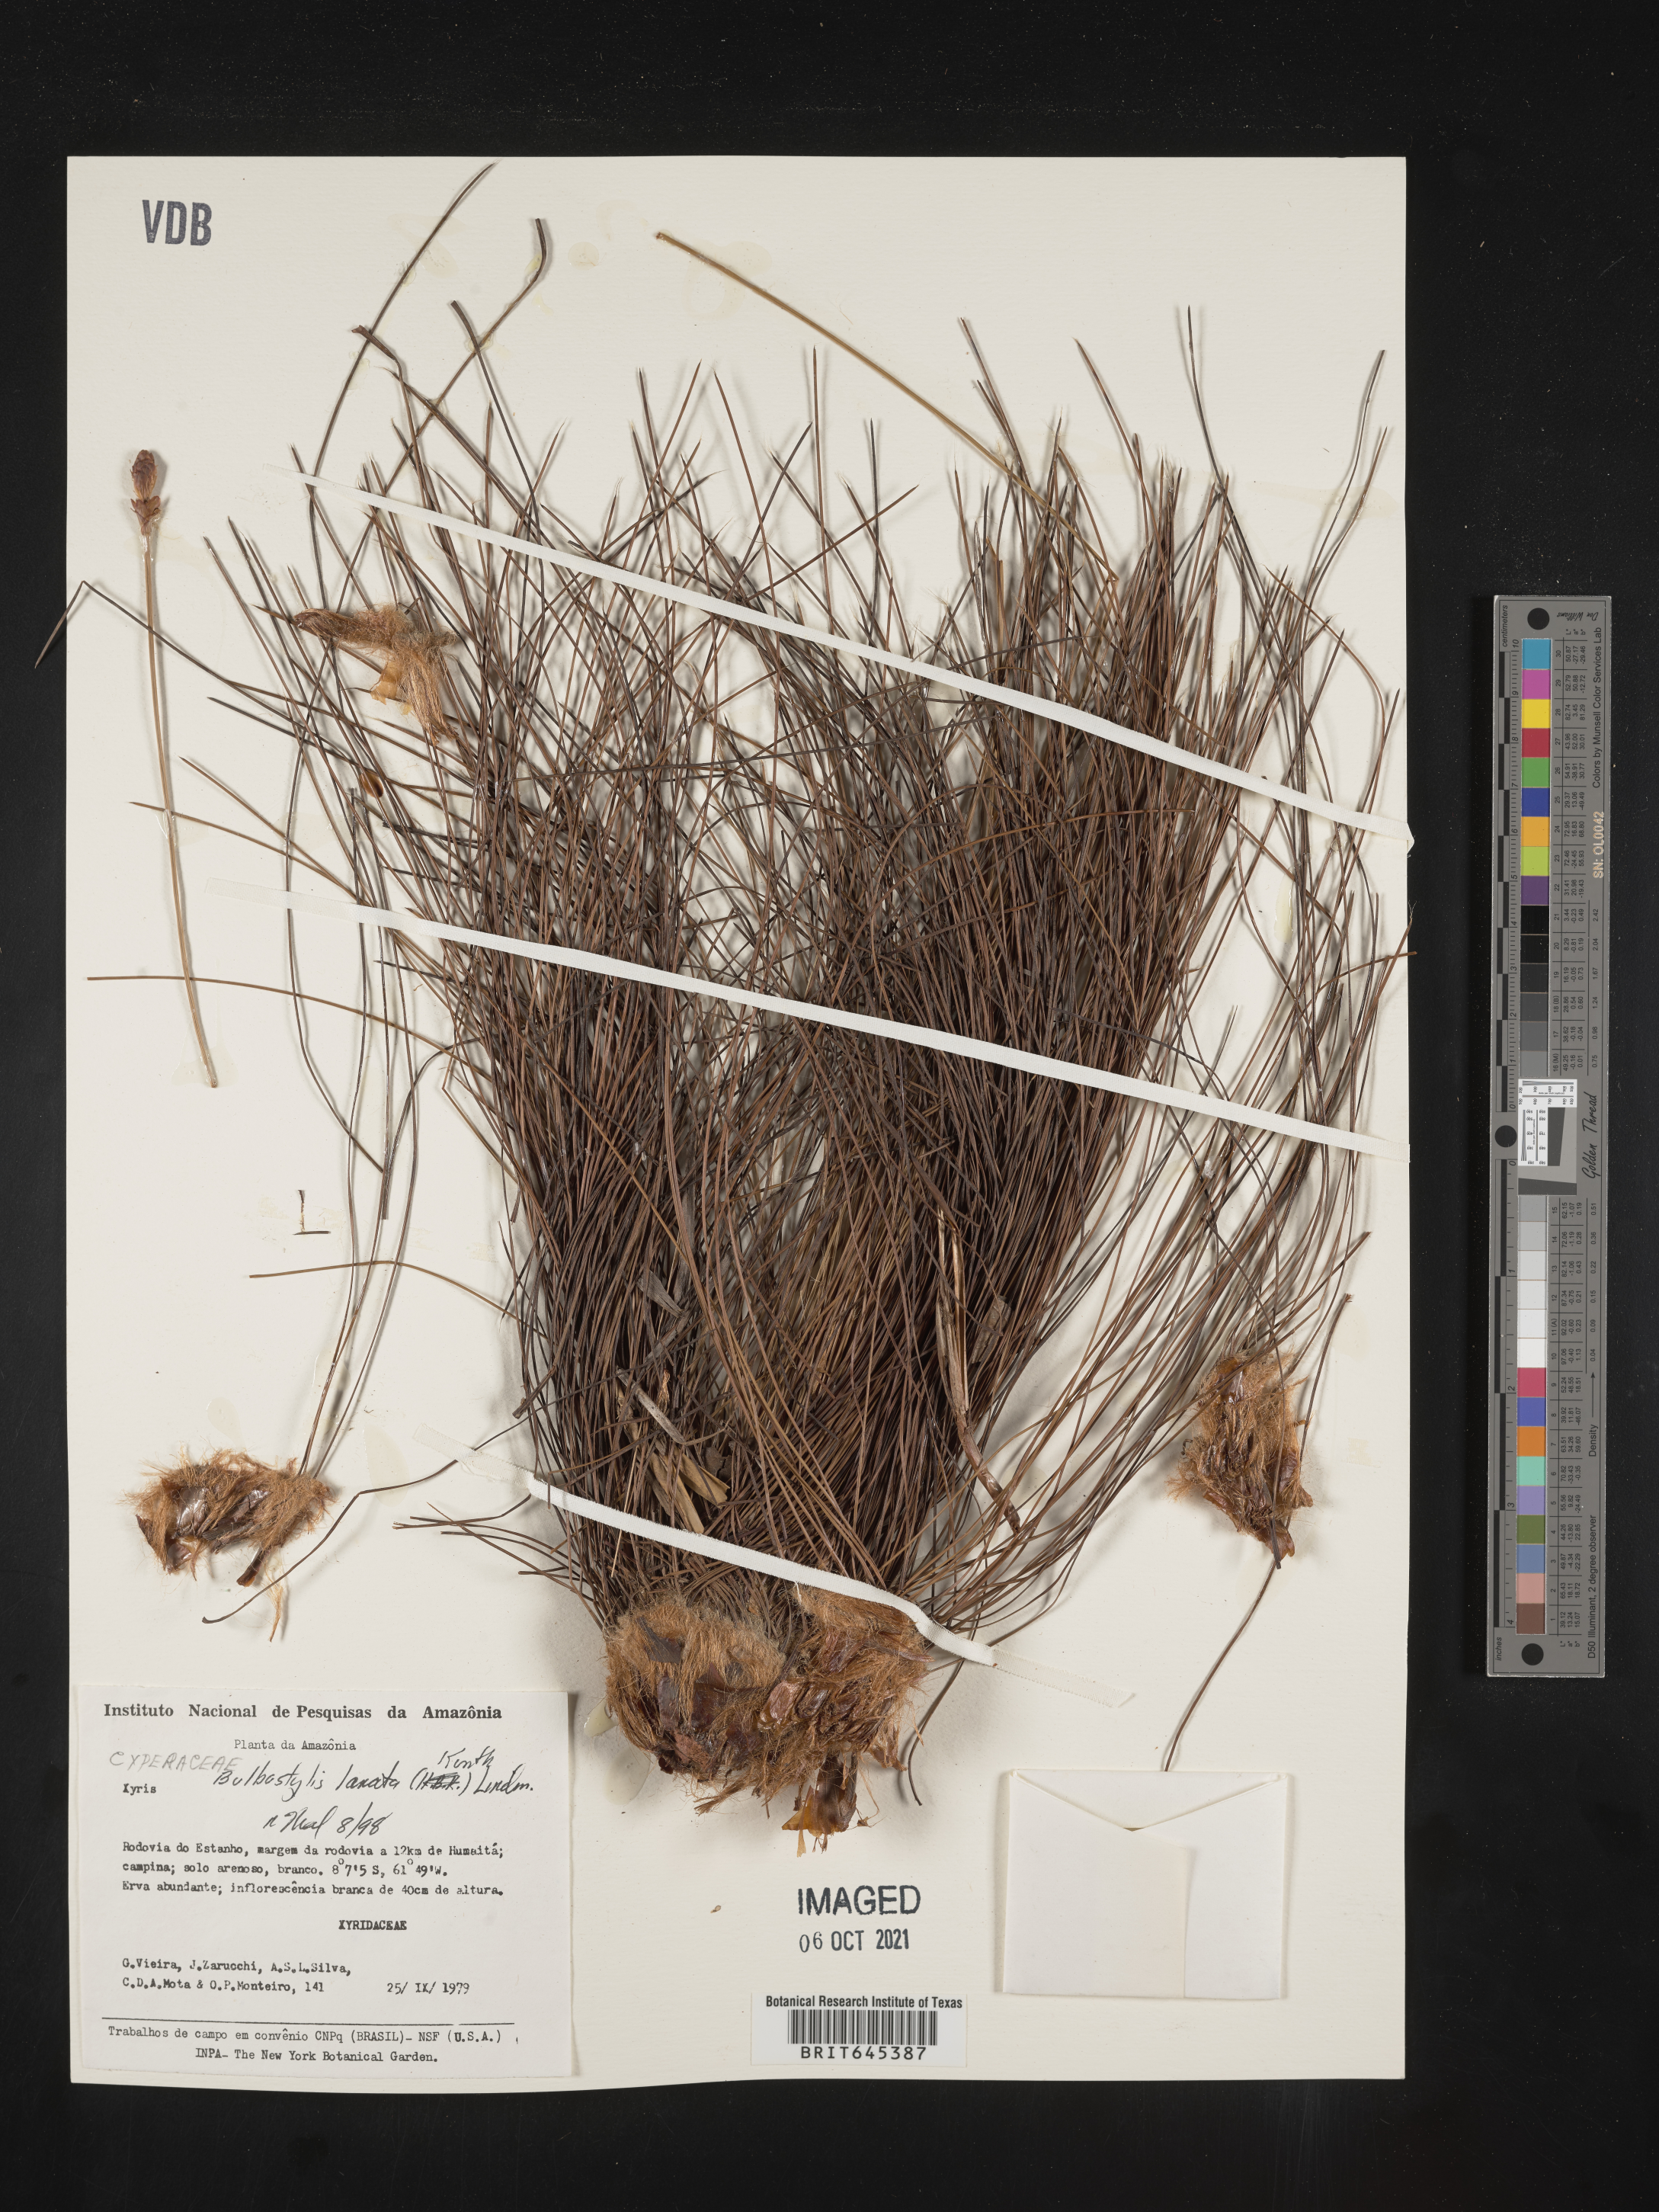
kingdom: Plantae
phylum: Tracheophyta
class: Liliopsida
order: Poales
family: Cyperaceae
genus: Bulbostylis
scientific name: Bulbostylis lanata
